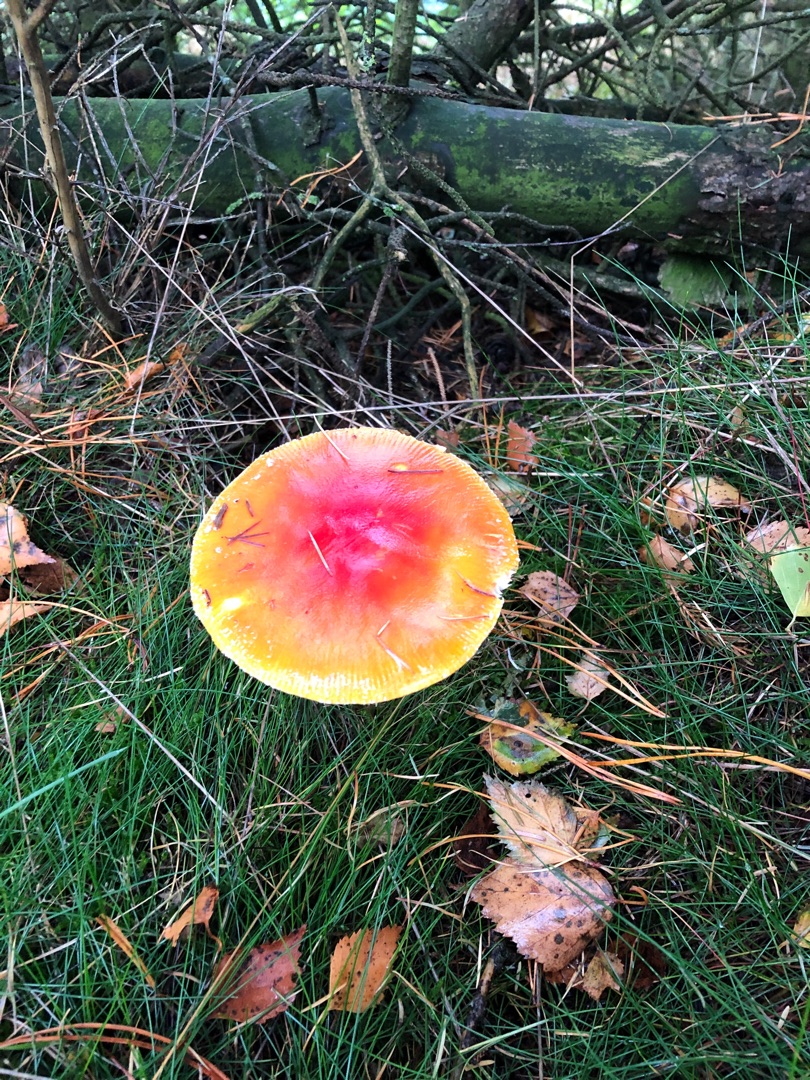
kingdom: Fungi
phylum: Basidiomycota
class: Agaricomycetes
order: Agaricales
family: Amanitaceae
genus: Amanita
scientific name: Amanita muscaria
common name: Rød fluesvamp
